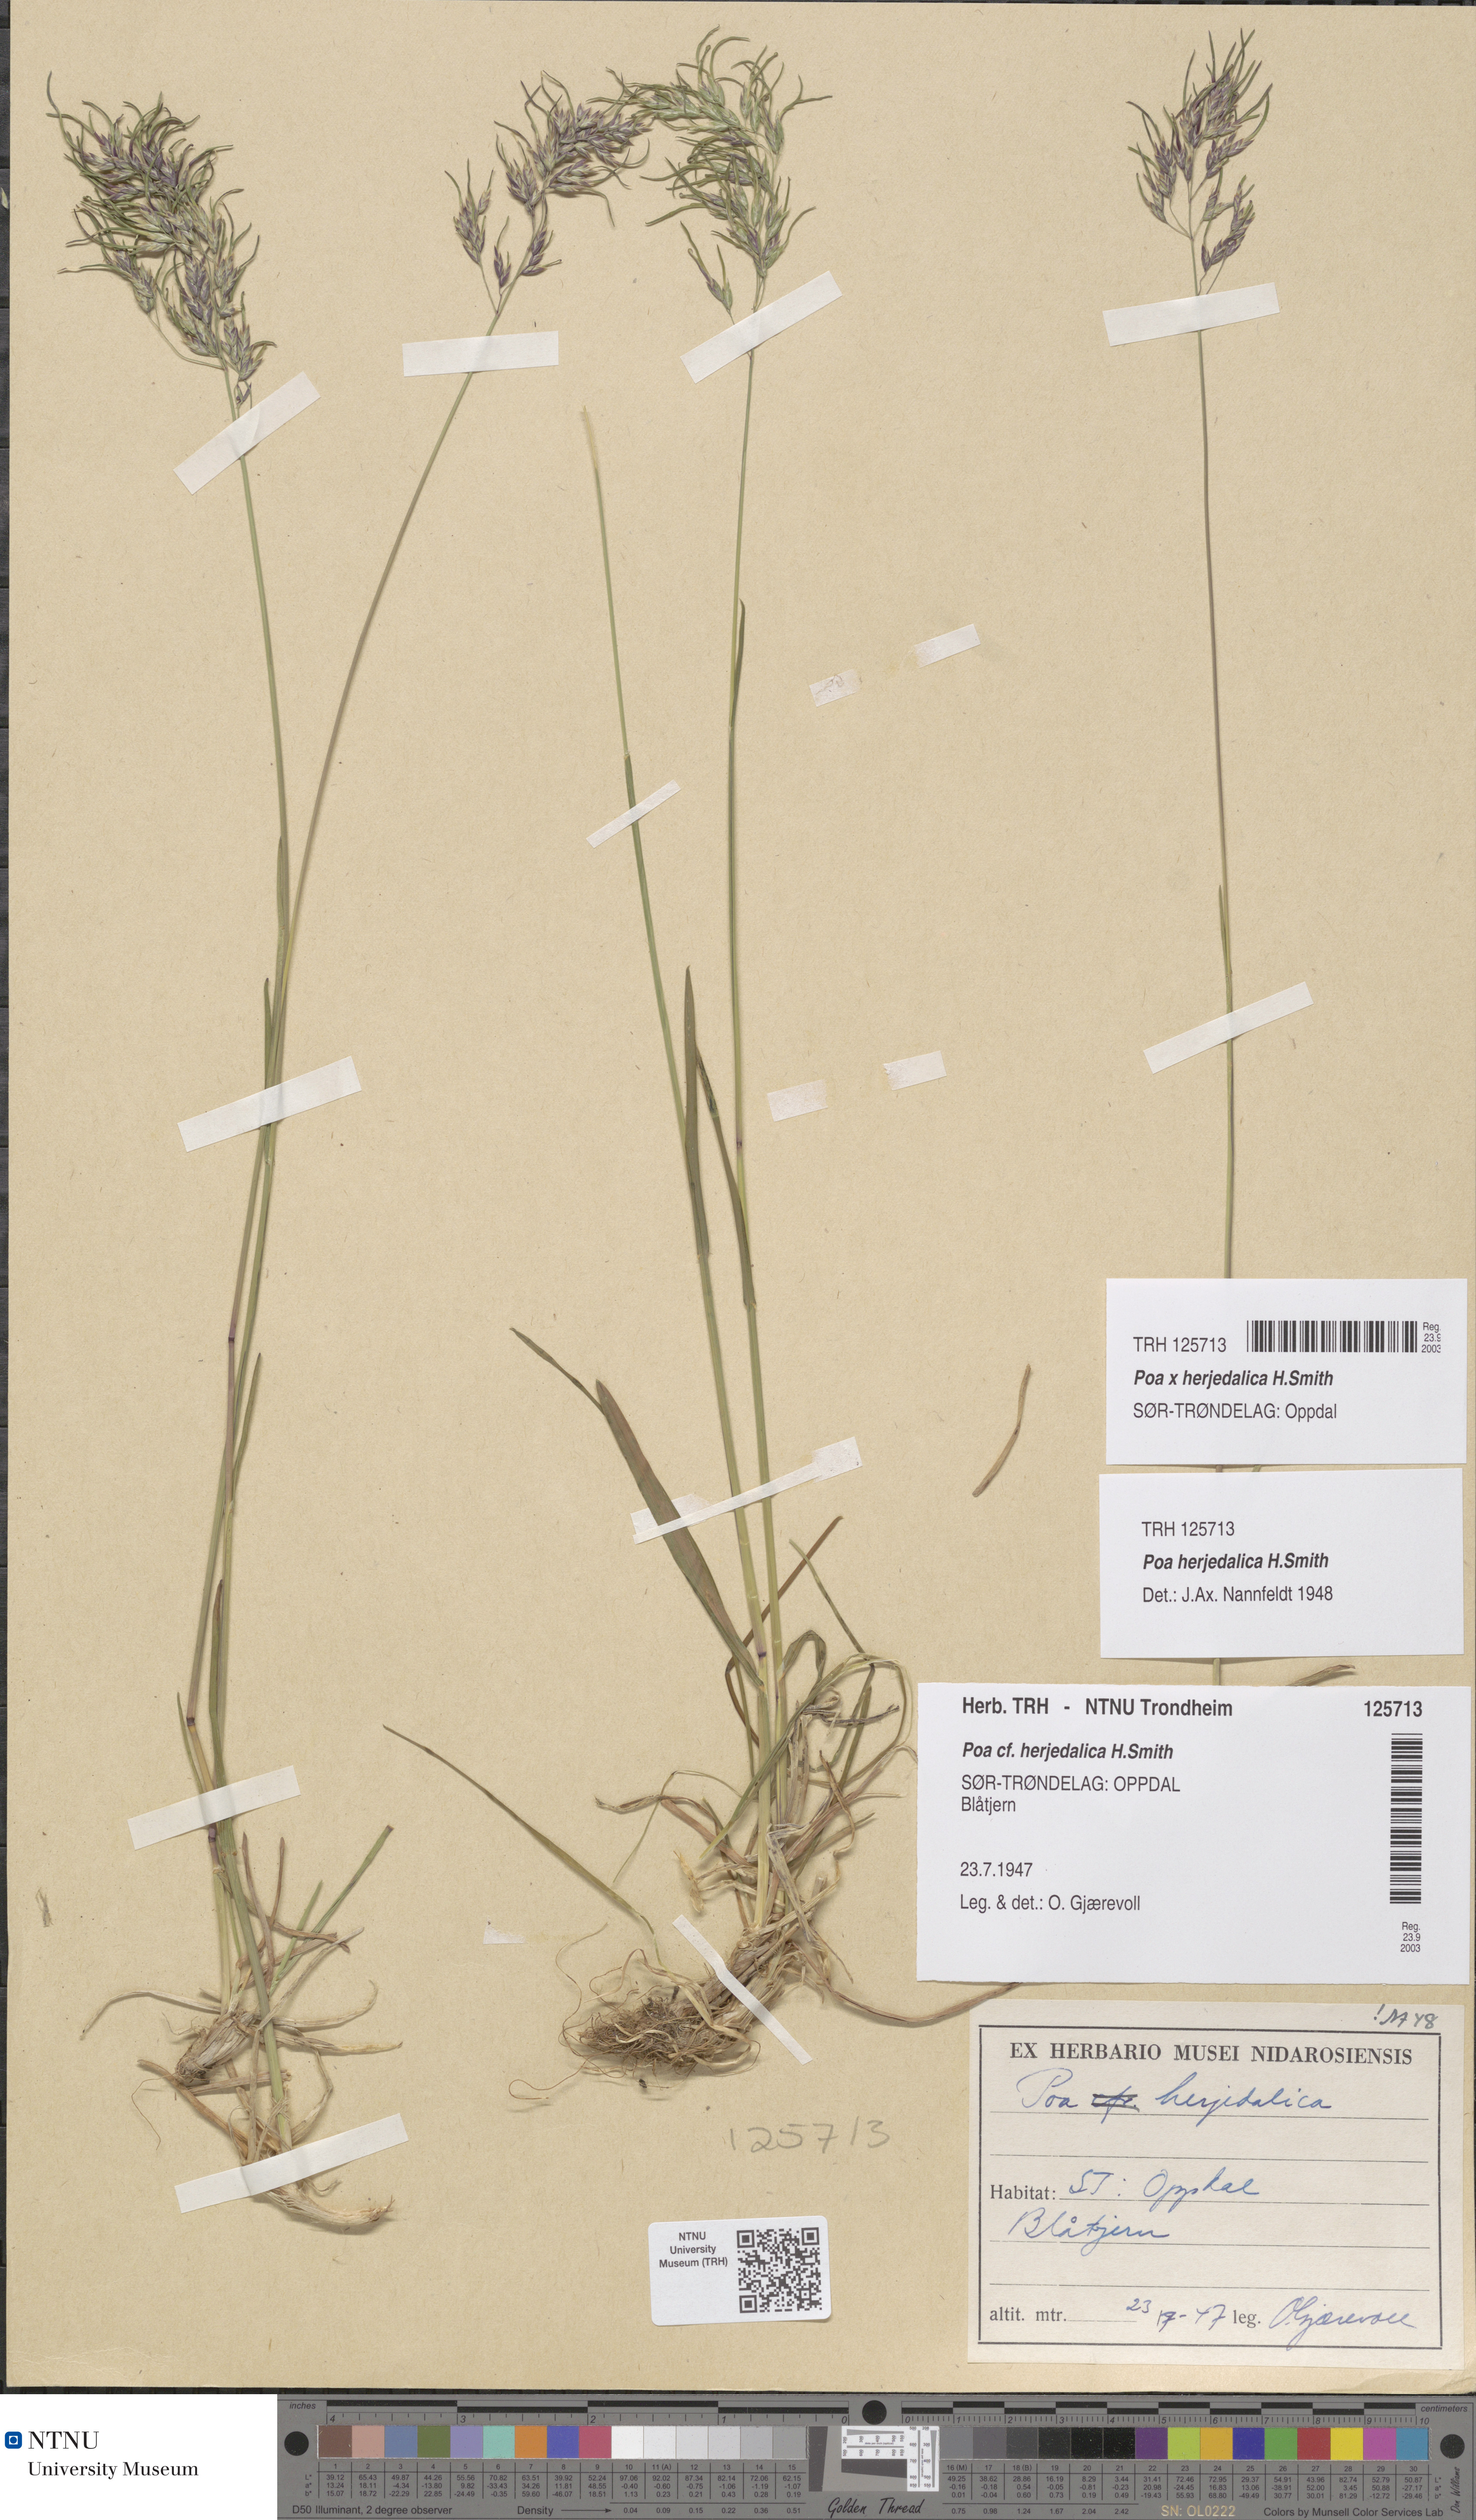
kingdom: Plantae
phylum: Tracheophyta
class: Liliopsida
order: Poales
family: Poaceae
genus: Poa
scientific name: Poa herjedalica
